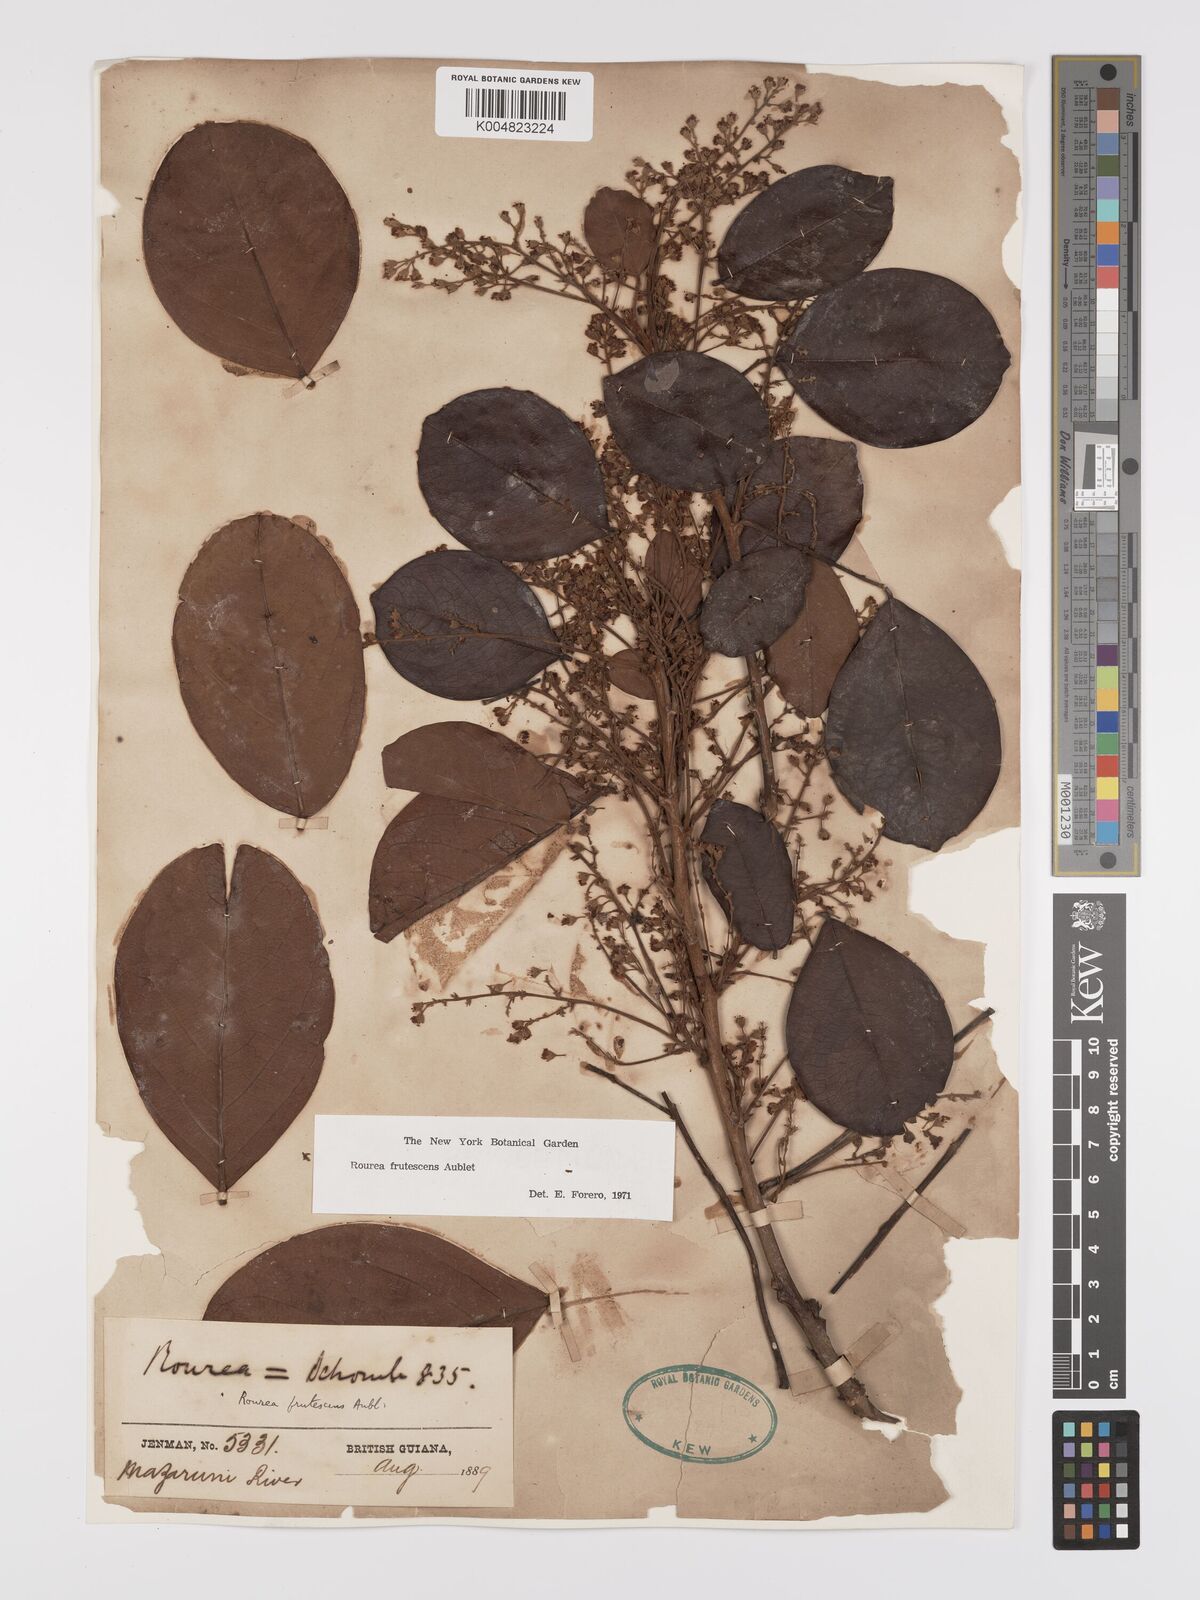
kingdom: Plantae
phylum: Tracheophyta
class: Magnoliopsida
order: Oxalidales
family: Connaraceae
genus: Rourea
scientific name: Rourea frutescens
